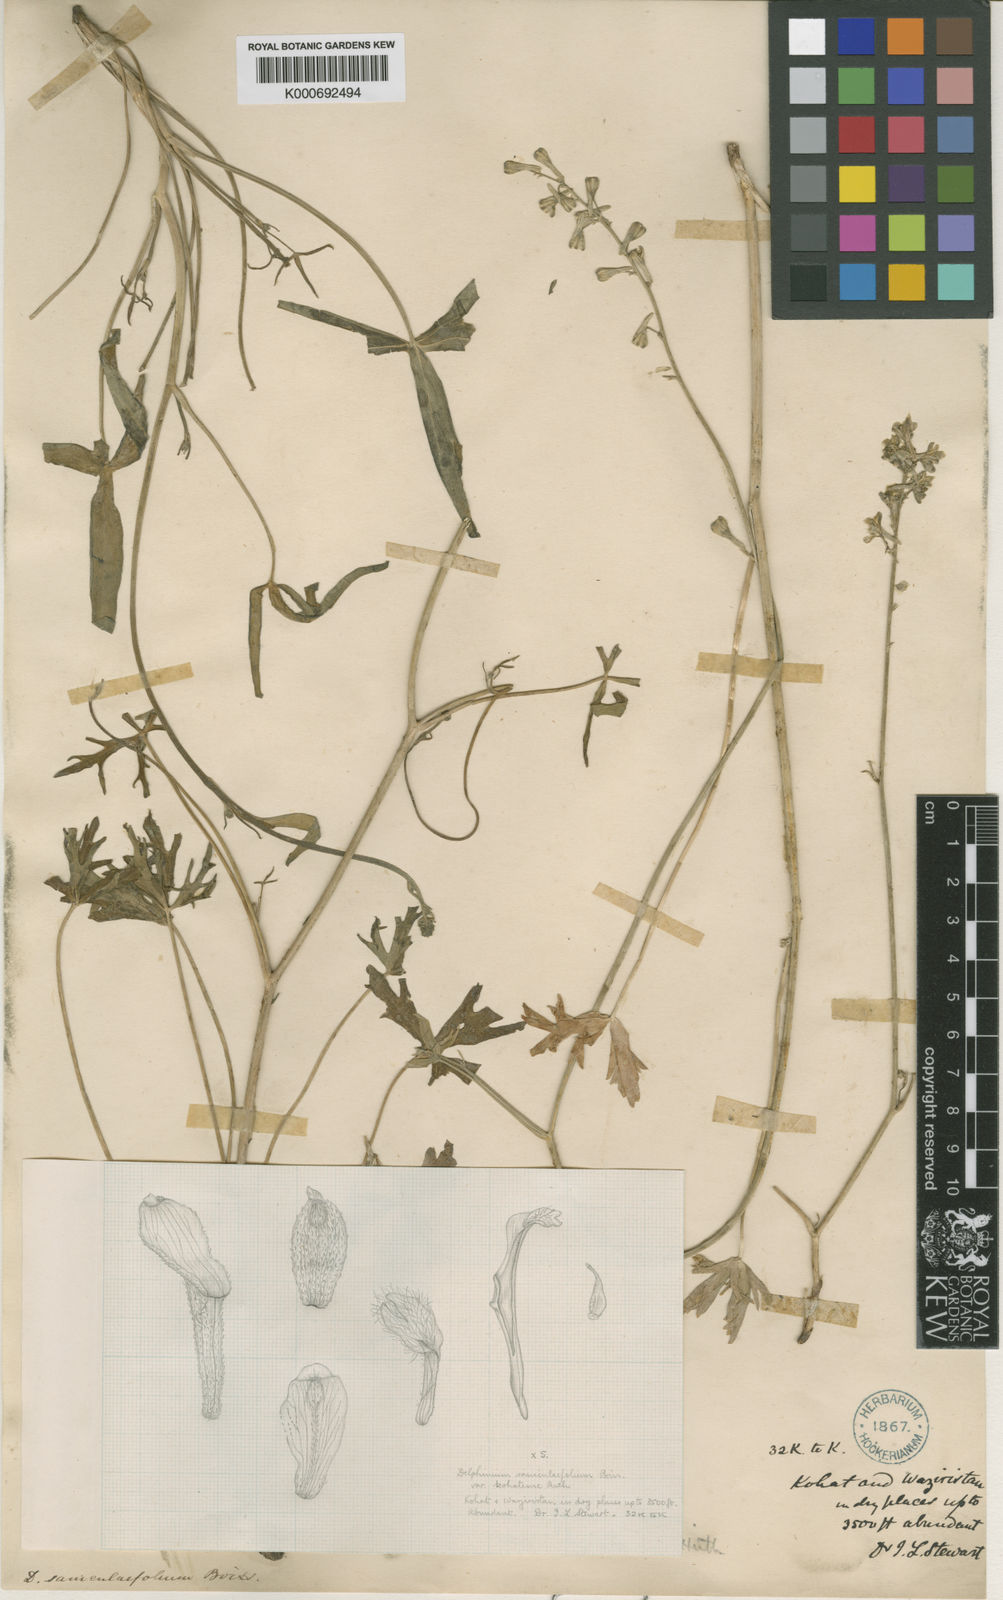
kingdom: Plantae
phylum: Tracheophyta
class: Magnoliopsida
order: Ranunculales
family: Ranunculaceae
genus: Delphinium
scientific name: Delphinium kohatense
